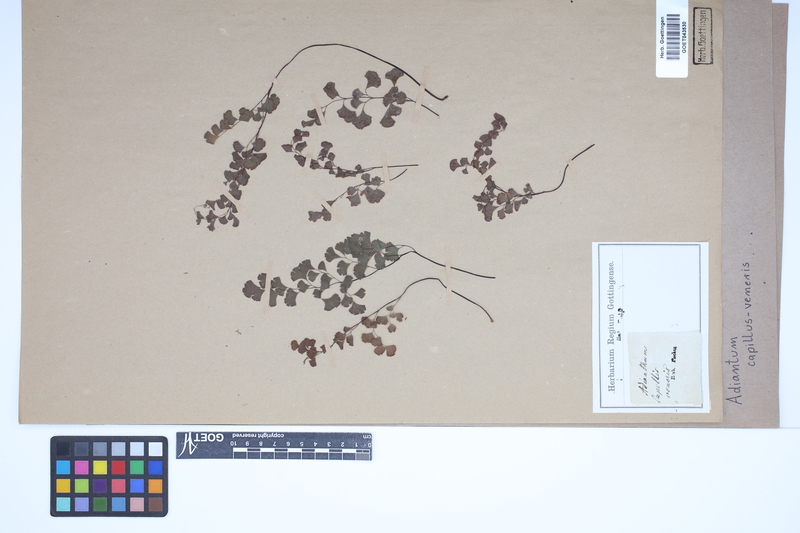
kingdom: Plantae
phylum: Tracheophyta
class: Polypodiopsida
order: Polypodiales
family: Pteridaceae
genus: Adiantum
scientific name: Adiantum capillus-veneris
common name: Maidenhair fern
